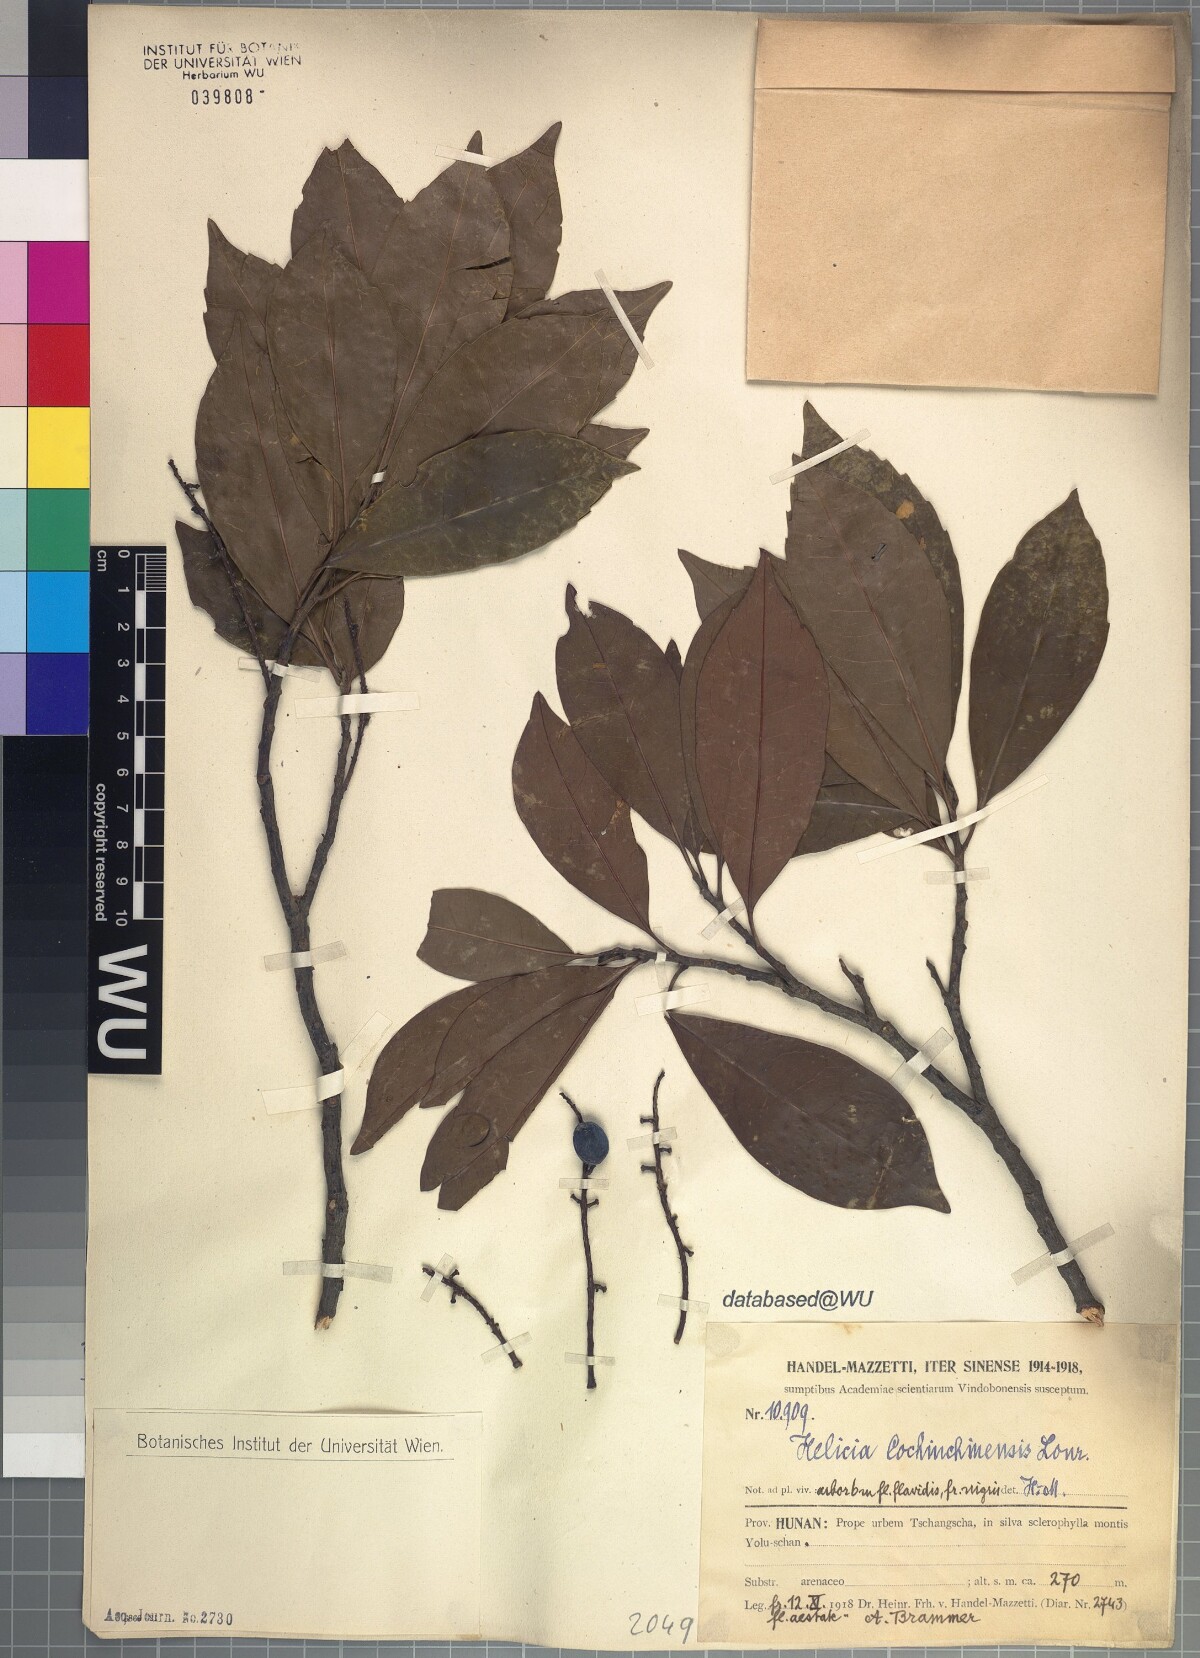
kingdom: Plantae
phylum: Tracheophyta
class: Magnoliopsida
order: Proteales
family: Proteaceae
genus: Helicia
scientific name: Helicia cochinchinensis
